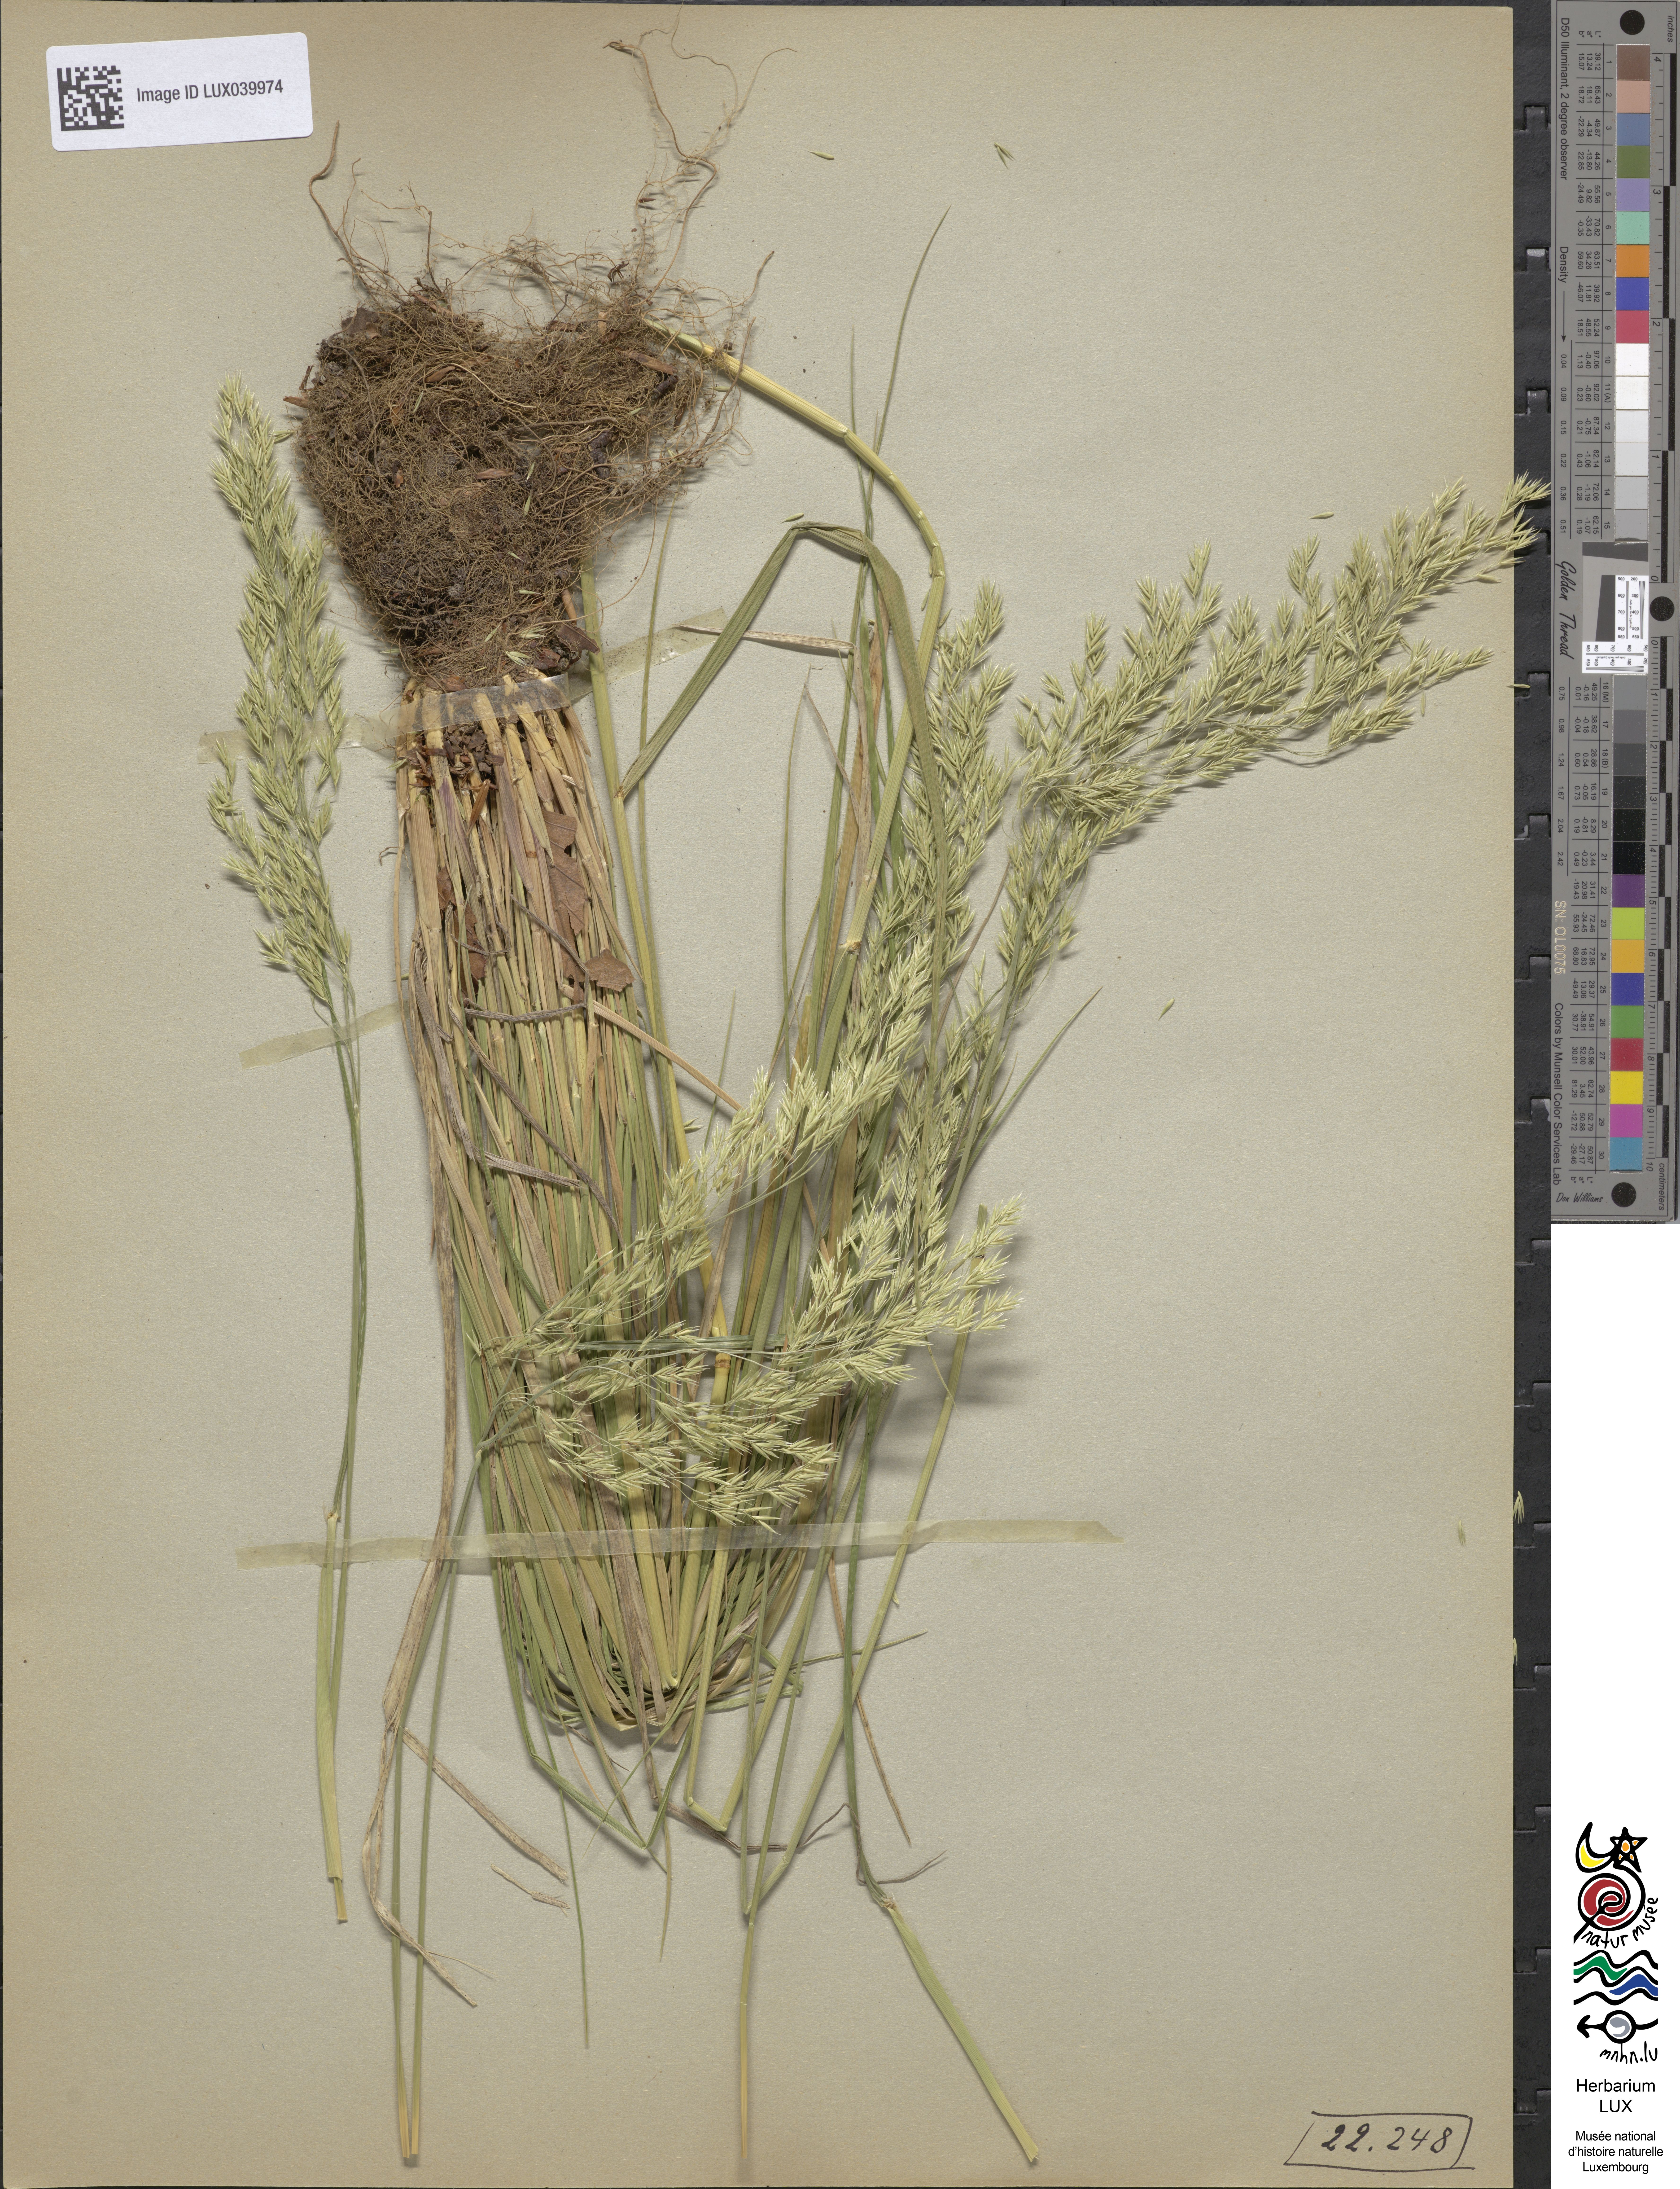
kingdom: Plantae
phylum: Tracheophyta
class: Liliopsida
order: Poales
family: Poaceae
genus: Festuca
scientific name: Festuca altissima
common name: Wood fescue
